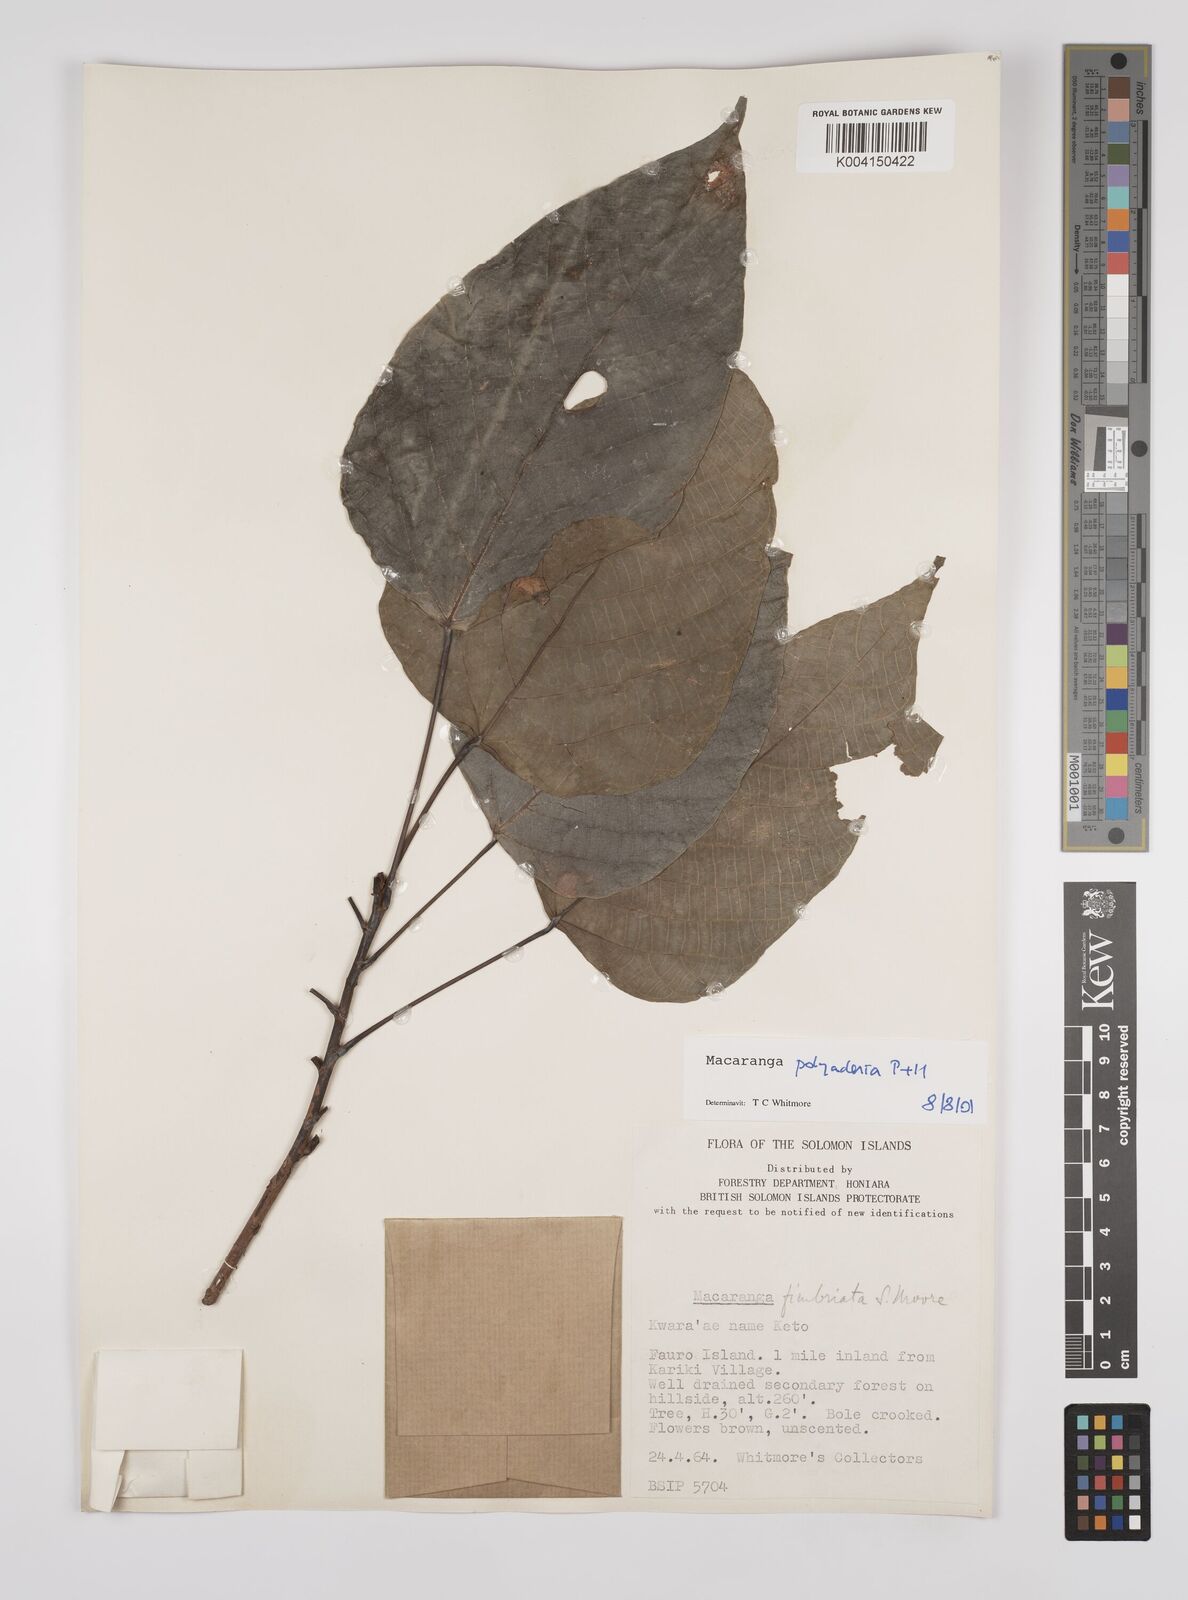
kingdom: Plantae
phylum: Tracheophyta
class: Magnoliopsida
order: Malpighiales
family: Euphorbiaceae
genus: Macaranga
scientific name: Macaranga polyadenia
